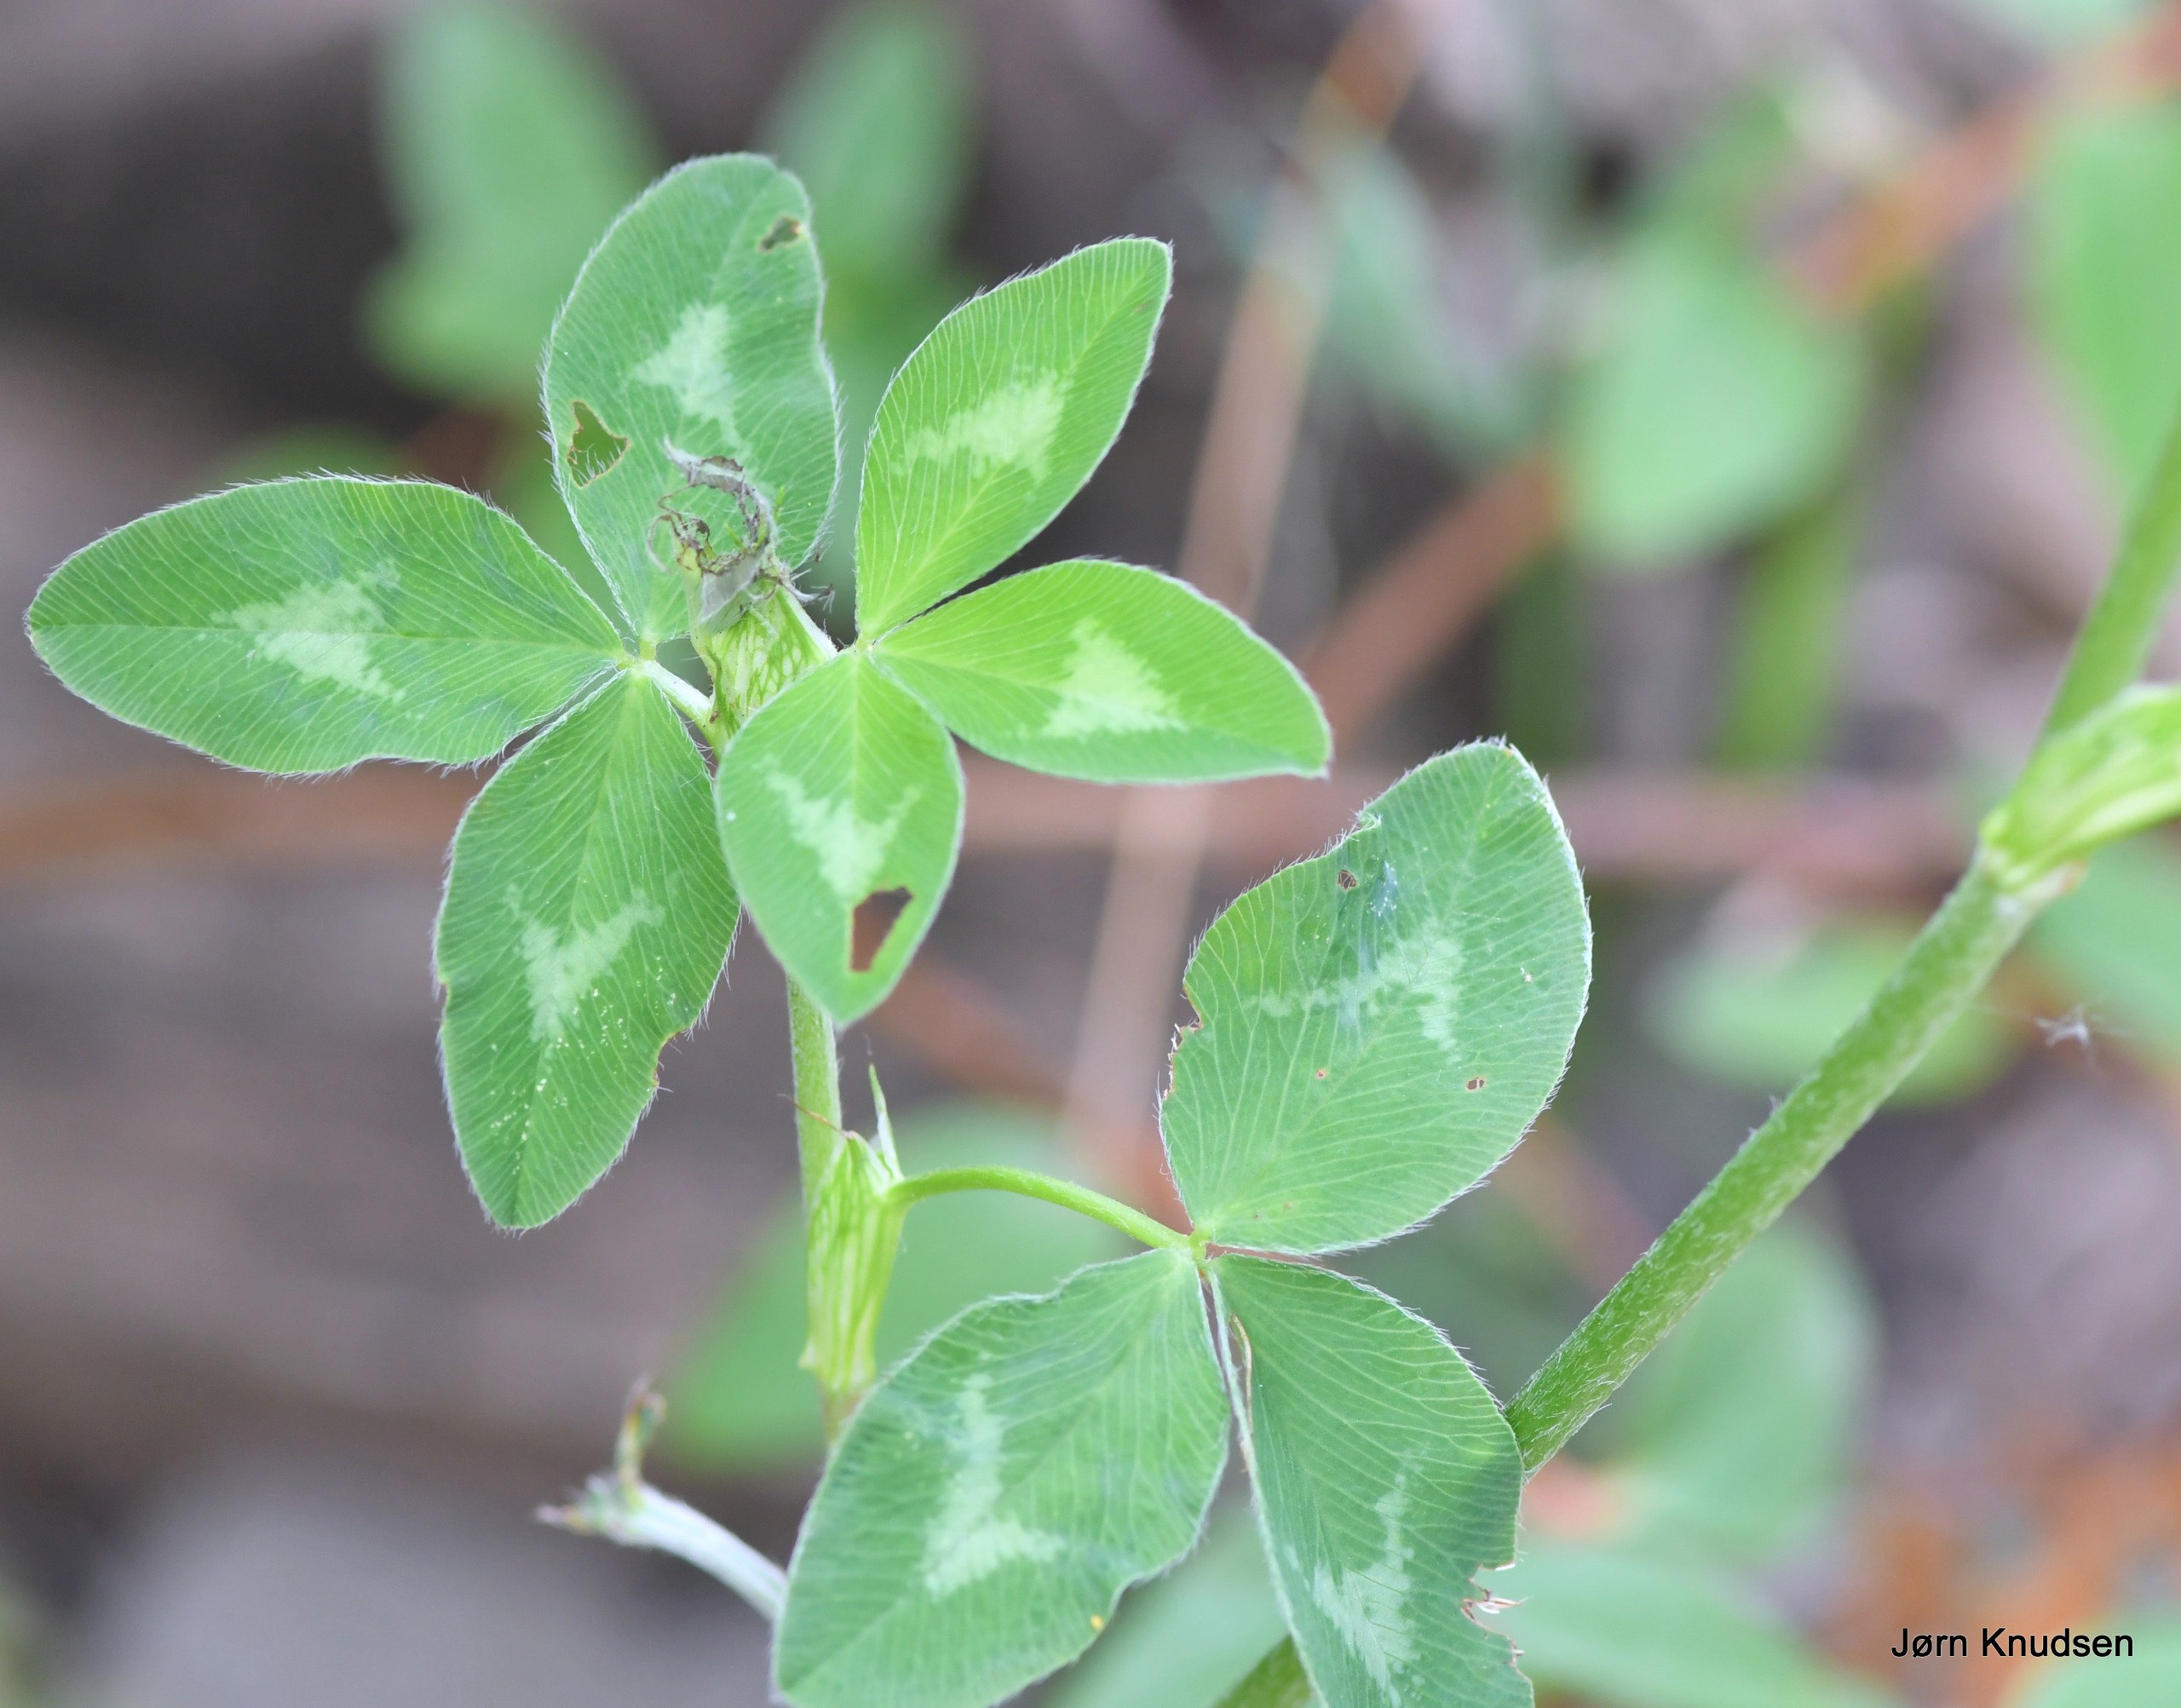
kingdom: Plantae
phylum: Tracheophyta
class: Magnoliopsida
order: Fabales
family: Fabaceae
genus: Trifolium
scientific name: Trifolium pratense
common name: Rød-kløver
